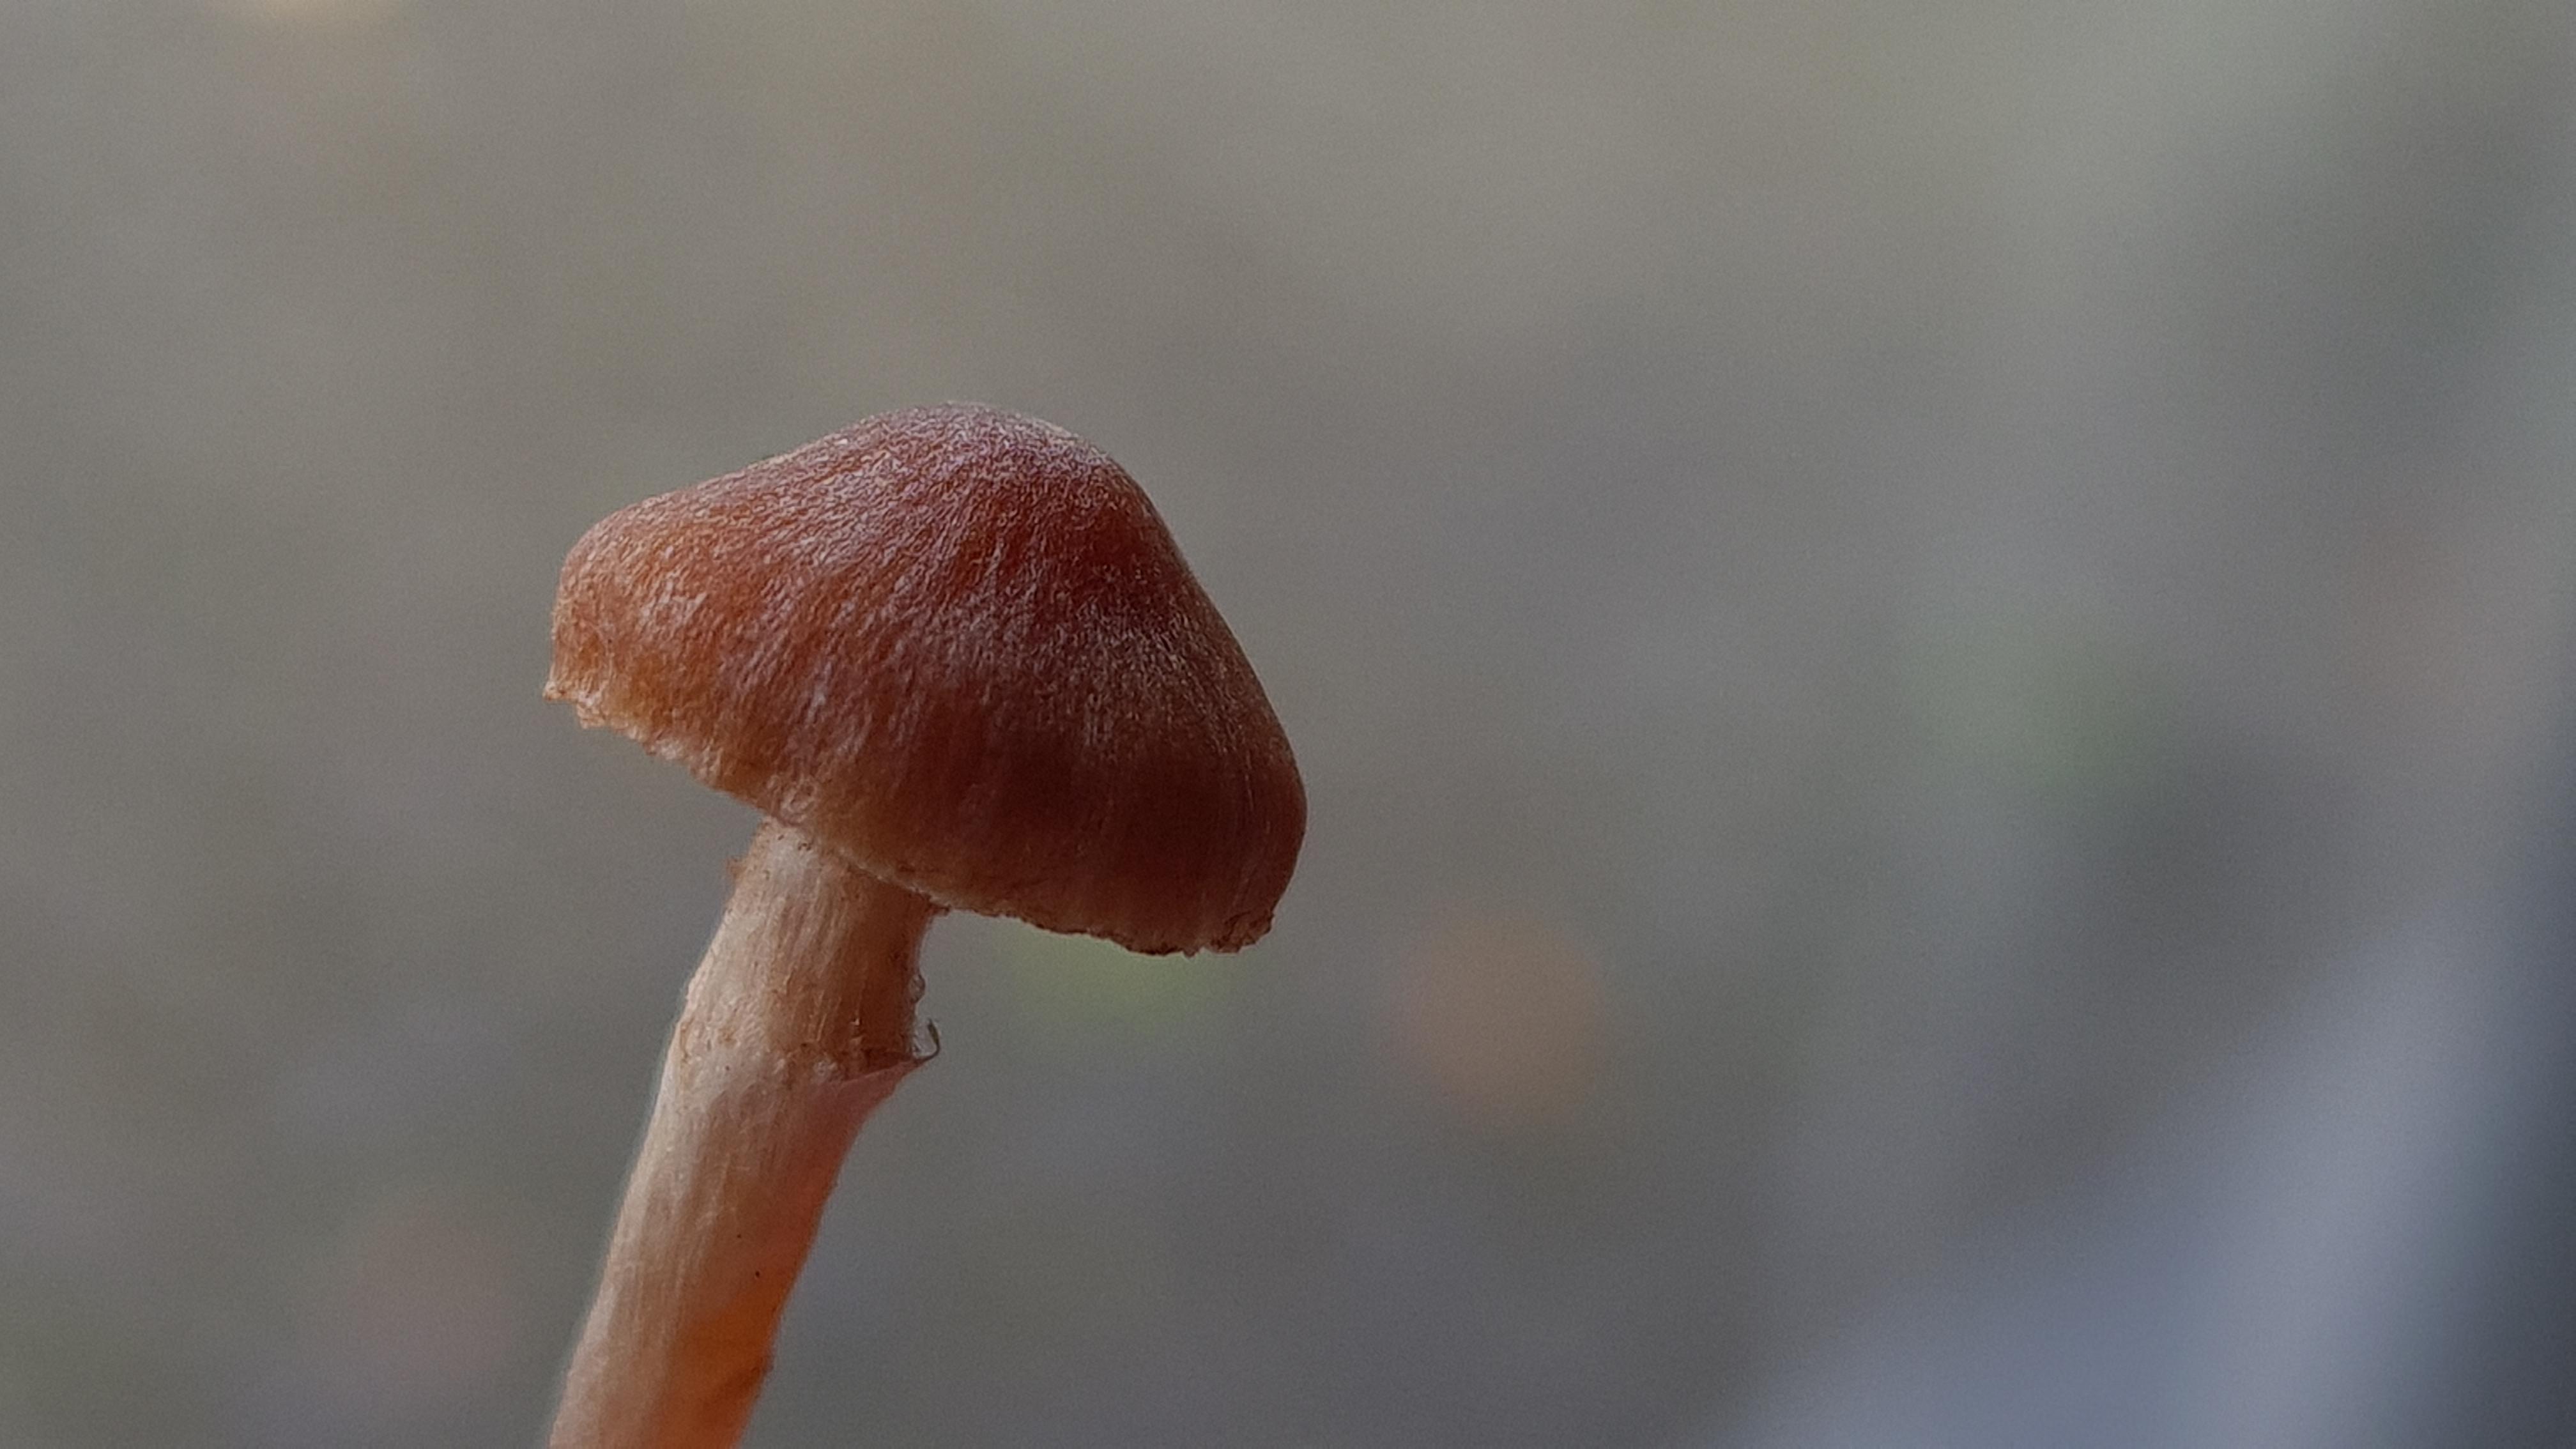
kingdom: Fungi
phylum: Basidiomycota
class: Agaricomycetes
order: Agaricales
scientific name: Agaricales
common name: champignonordenen
